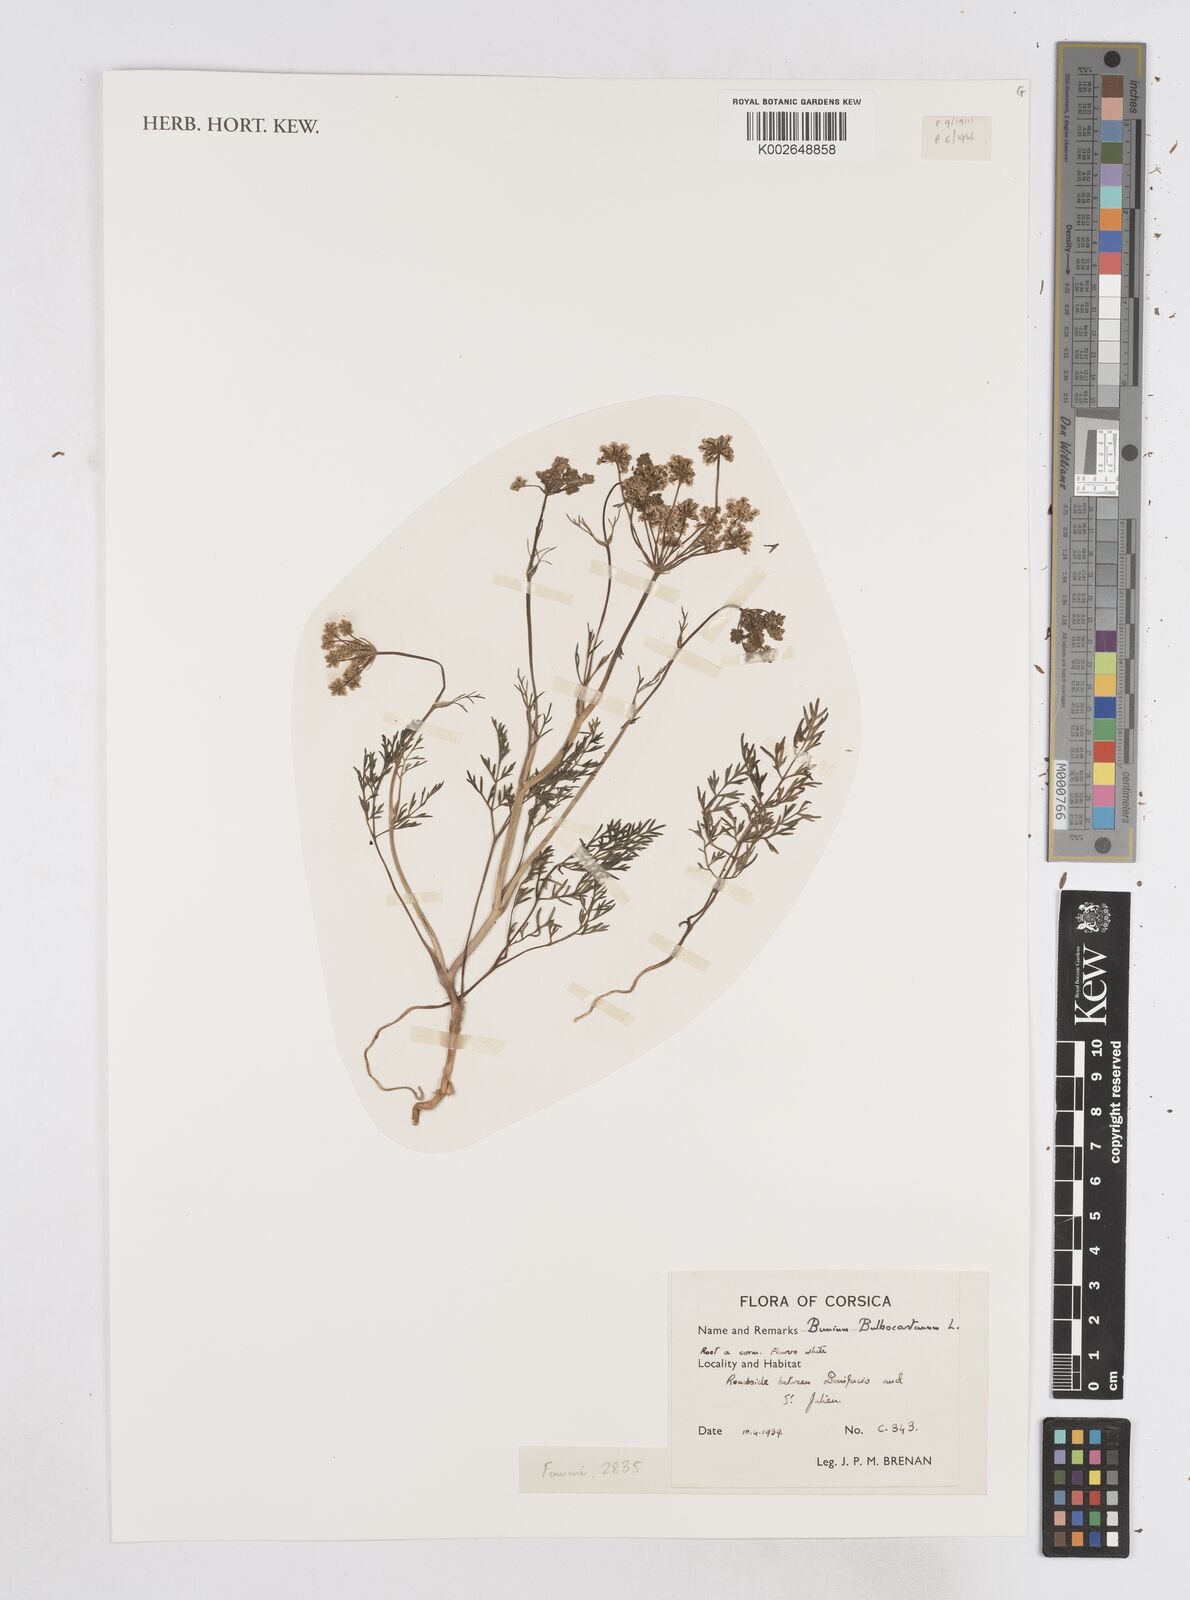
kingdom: Plantae
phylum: Tracheophyta
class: Magnoliopsida
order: Apiales
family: Apiaceae
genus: Bunium
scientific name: Bunium bulbocastanum
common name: Great pignut
